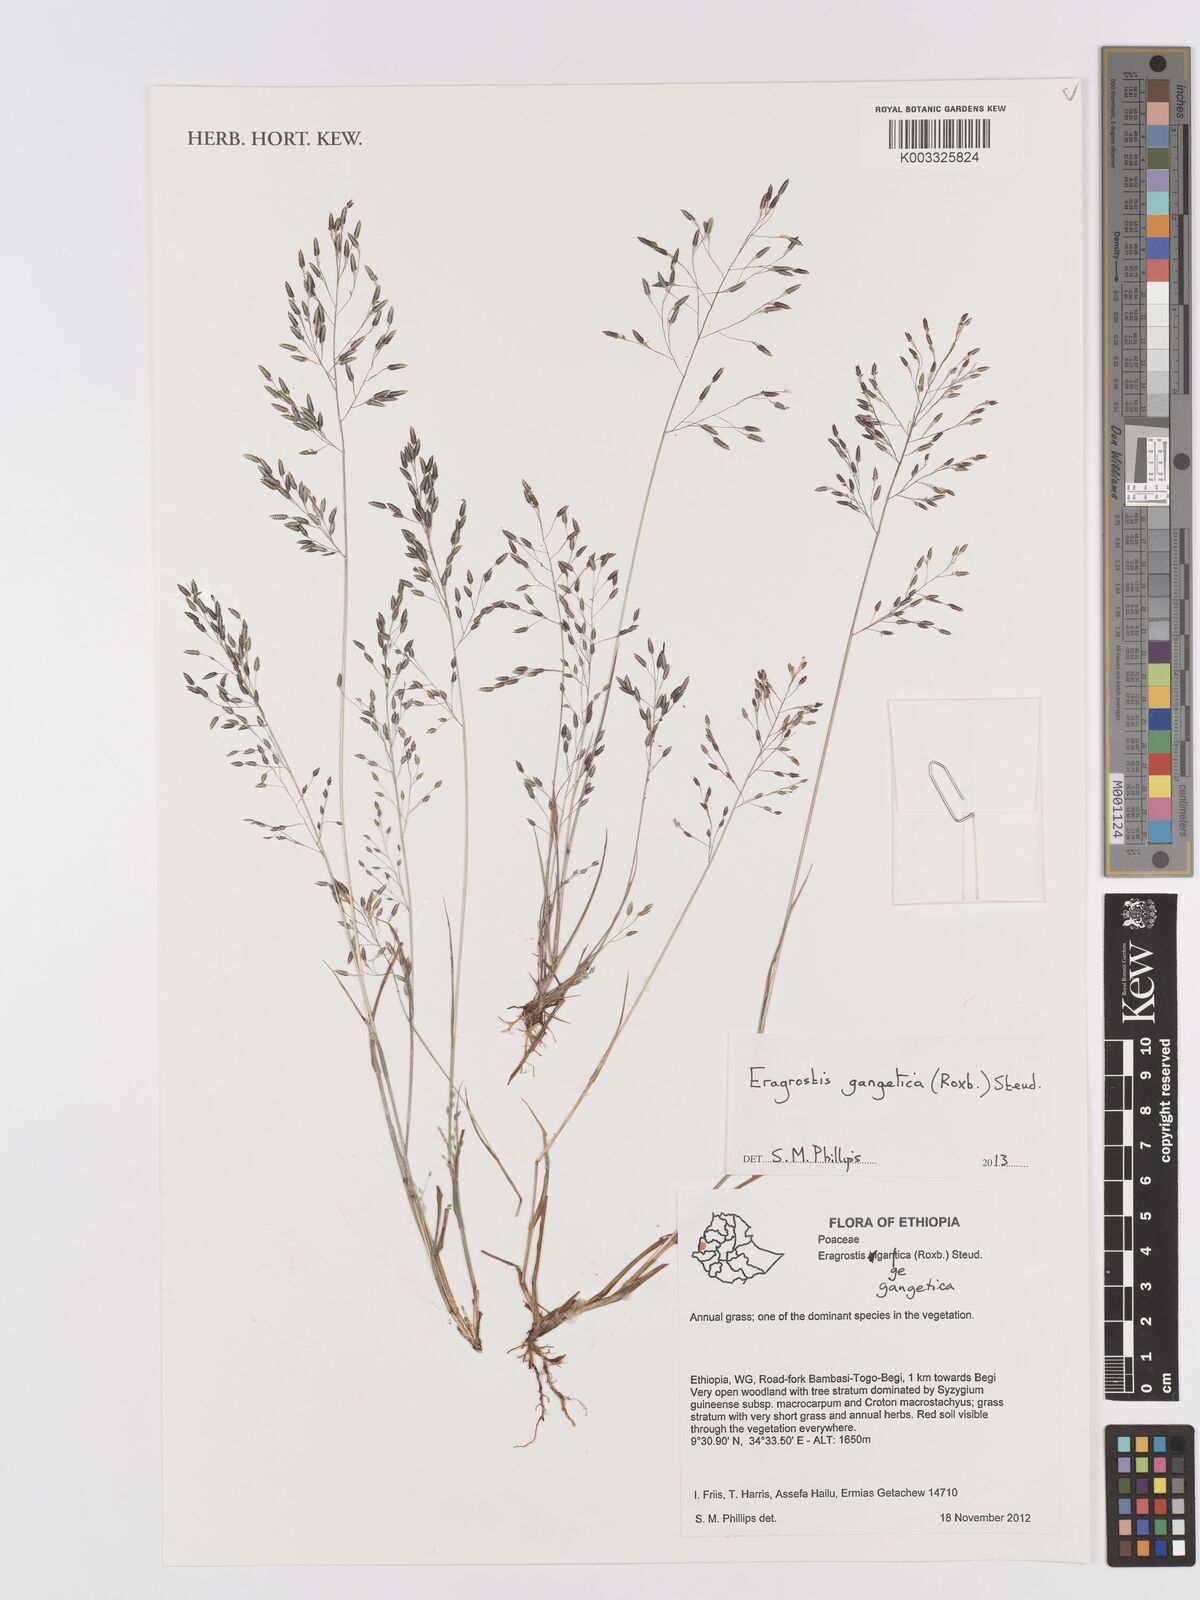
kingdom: Plantae
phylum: Tracheophyta
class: Liliopsida
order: Poales
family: Poaceae
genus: Eragrostis
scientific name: Eragrostis gangetica
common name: Slimflower lovegrass
